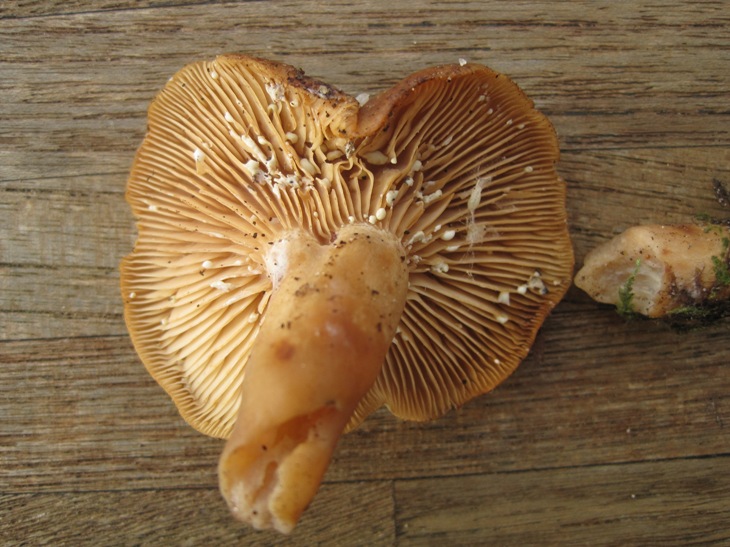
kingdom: Fungi
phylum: Basidiomycota
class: Agaricomycetes
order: Russulales
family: Russulaceae
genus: Lactarius
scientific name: Lactarius pyrogalus
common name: hassel-mælkehat
